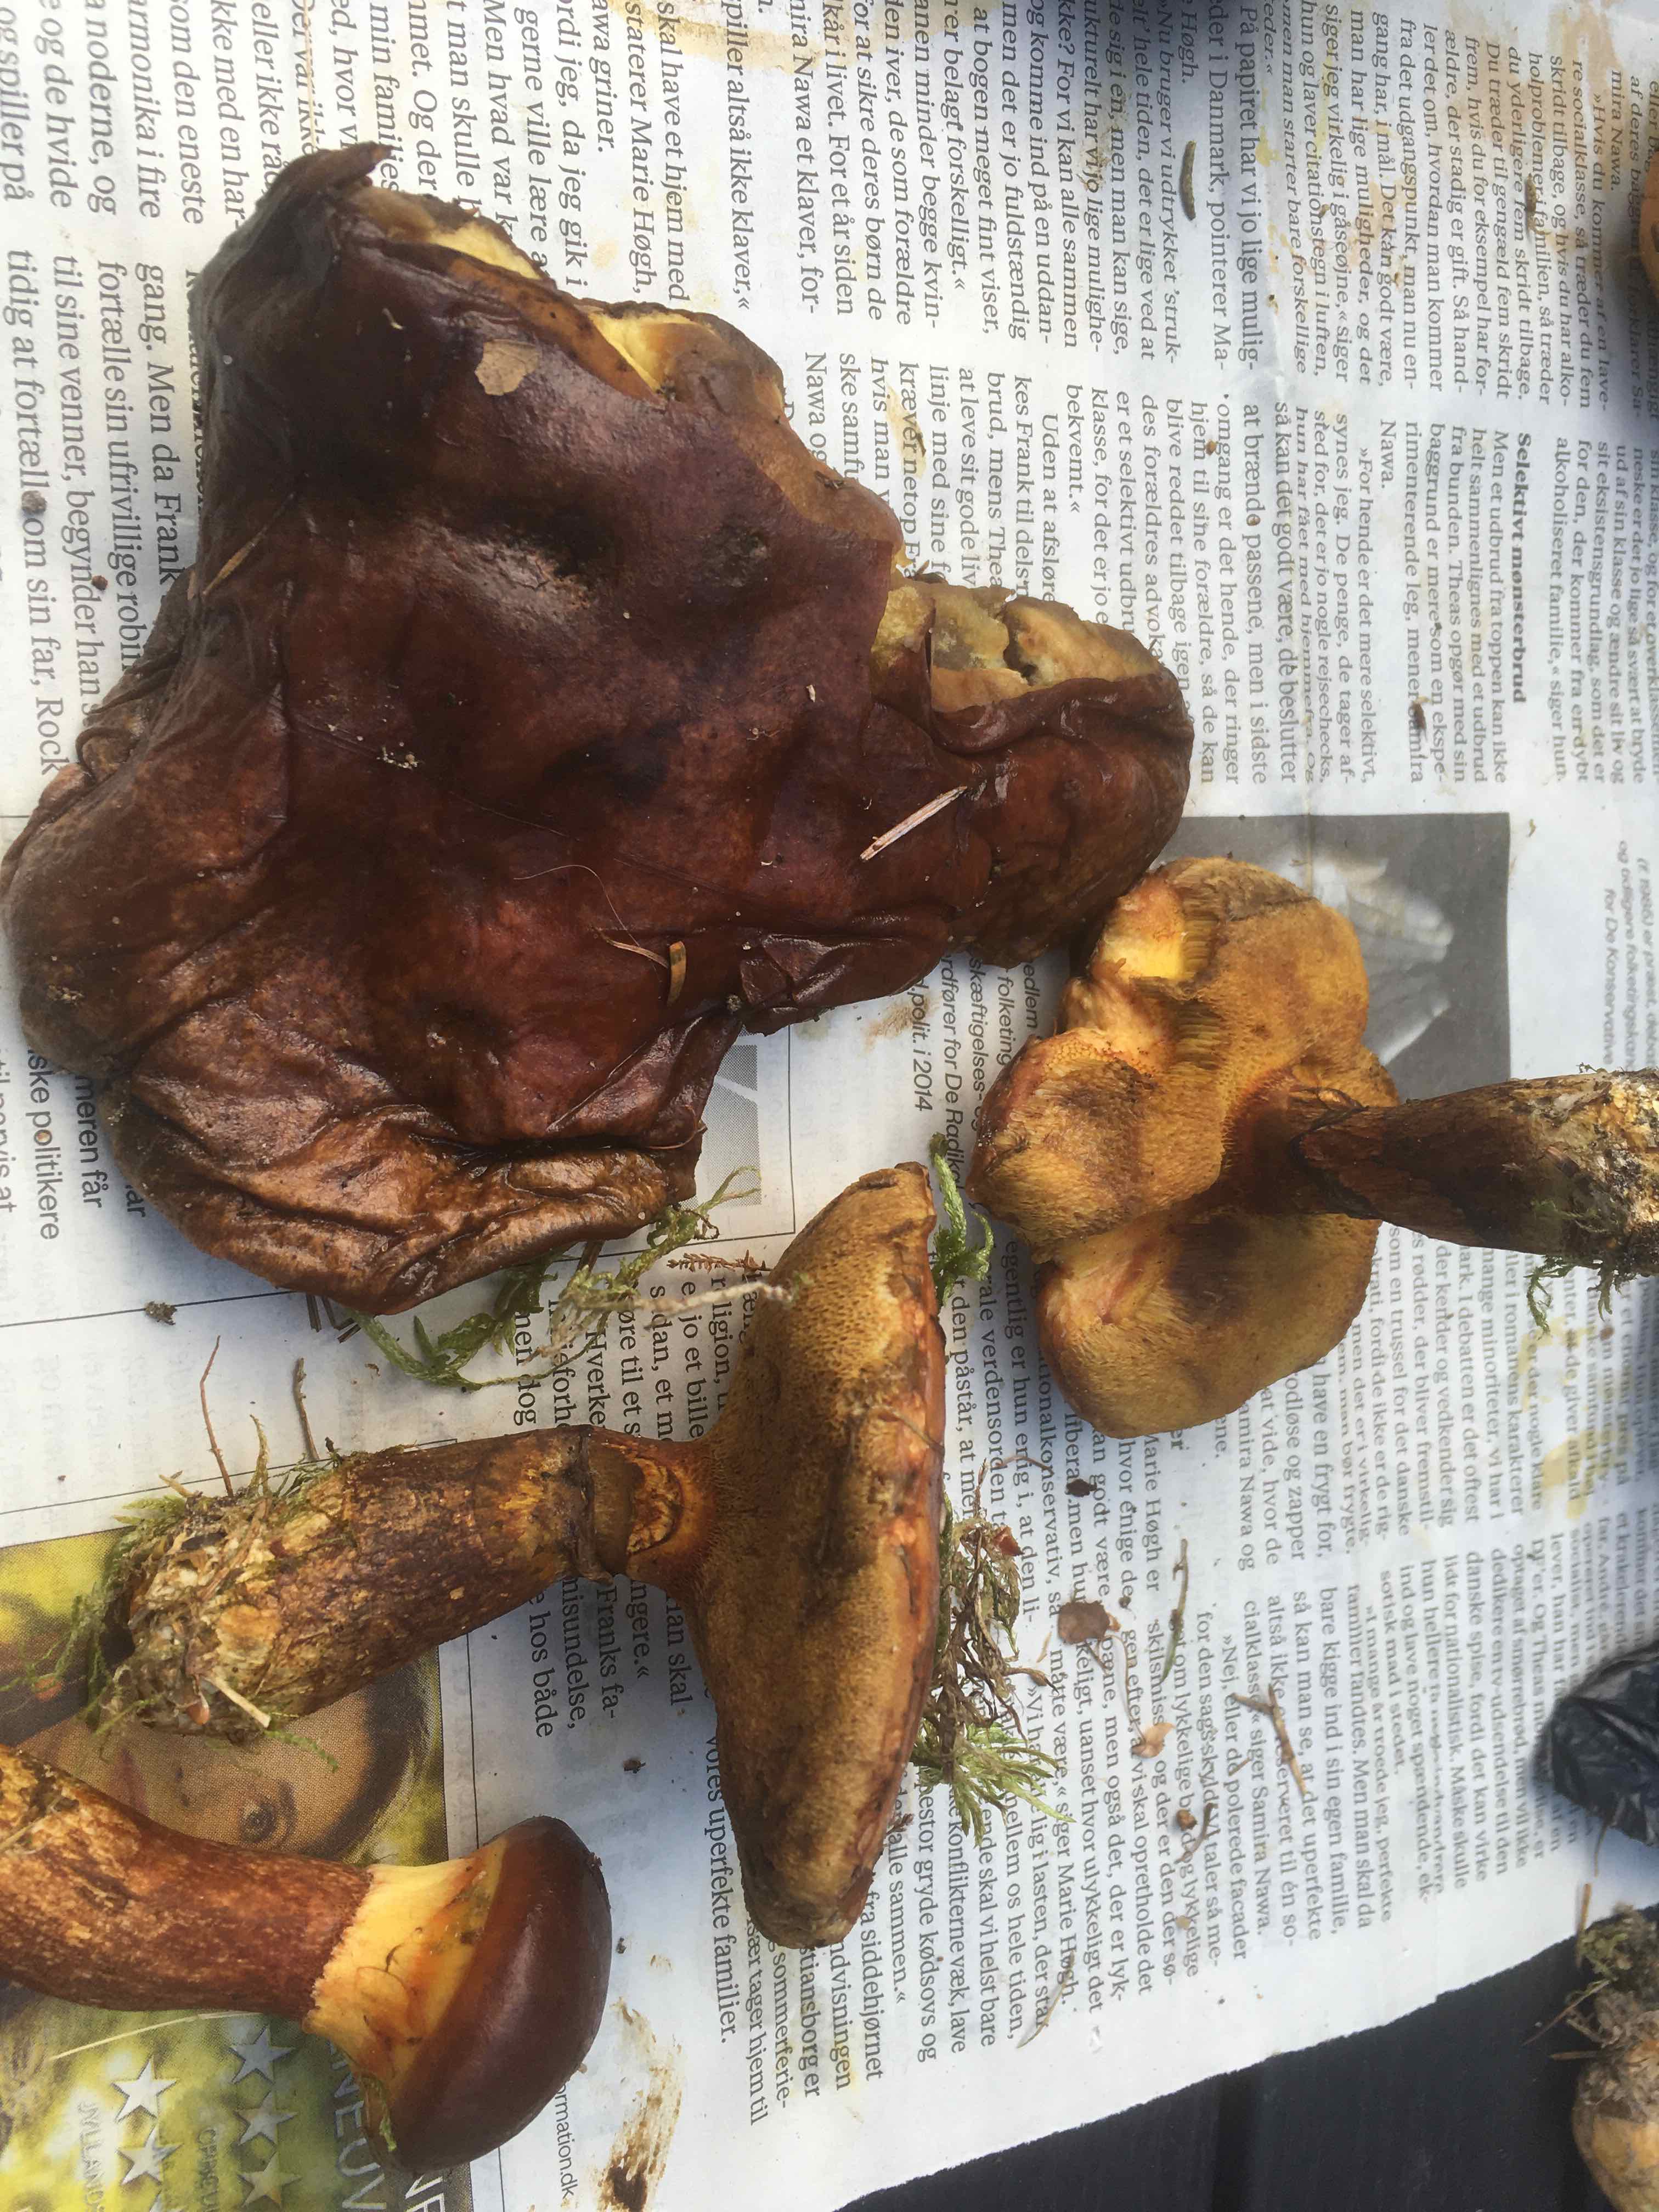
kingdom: Fungi
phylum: Basidiomycota
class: Agaricomycetes
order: Boletales
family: Suillaceae
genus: Suillus
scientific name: Suillus
